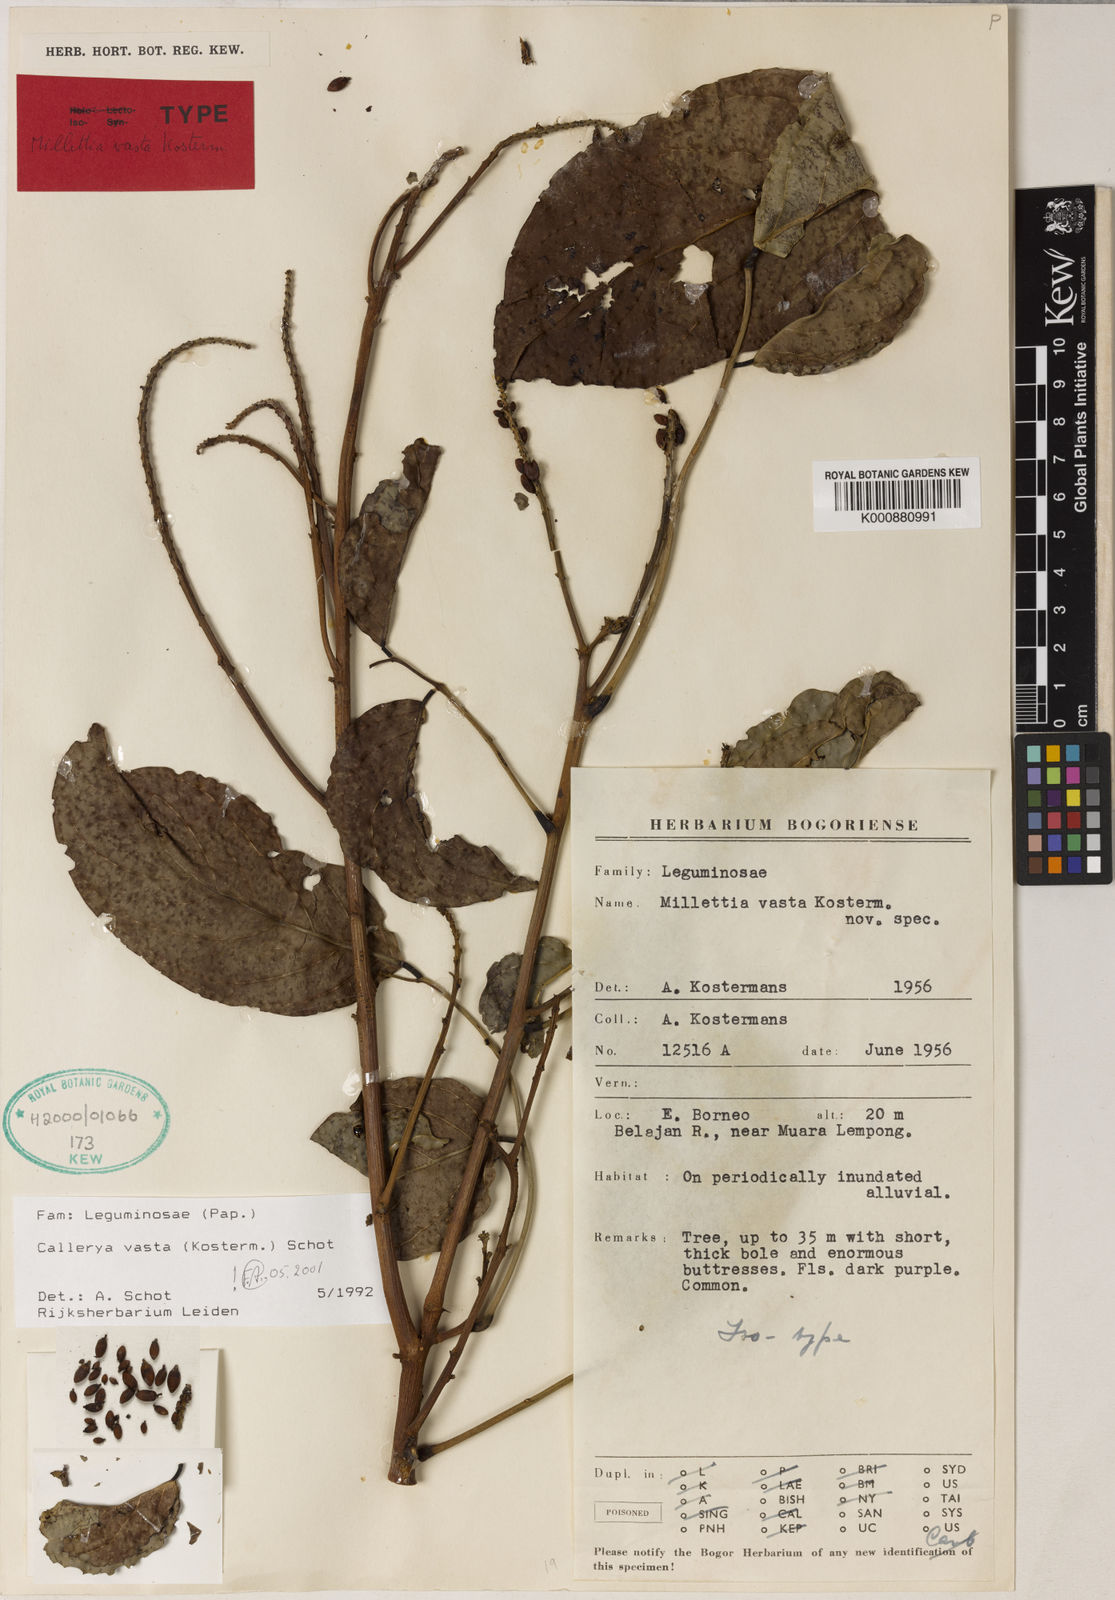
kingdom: Plantae
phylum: Tracheophyta
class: Magnoliopsida
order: Fabales
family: Fabaceae
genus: Adinobotrys
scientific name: Adinobotrys vastus
